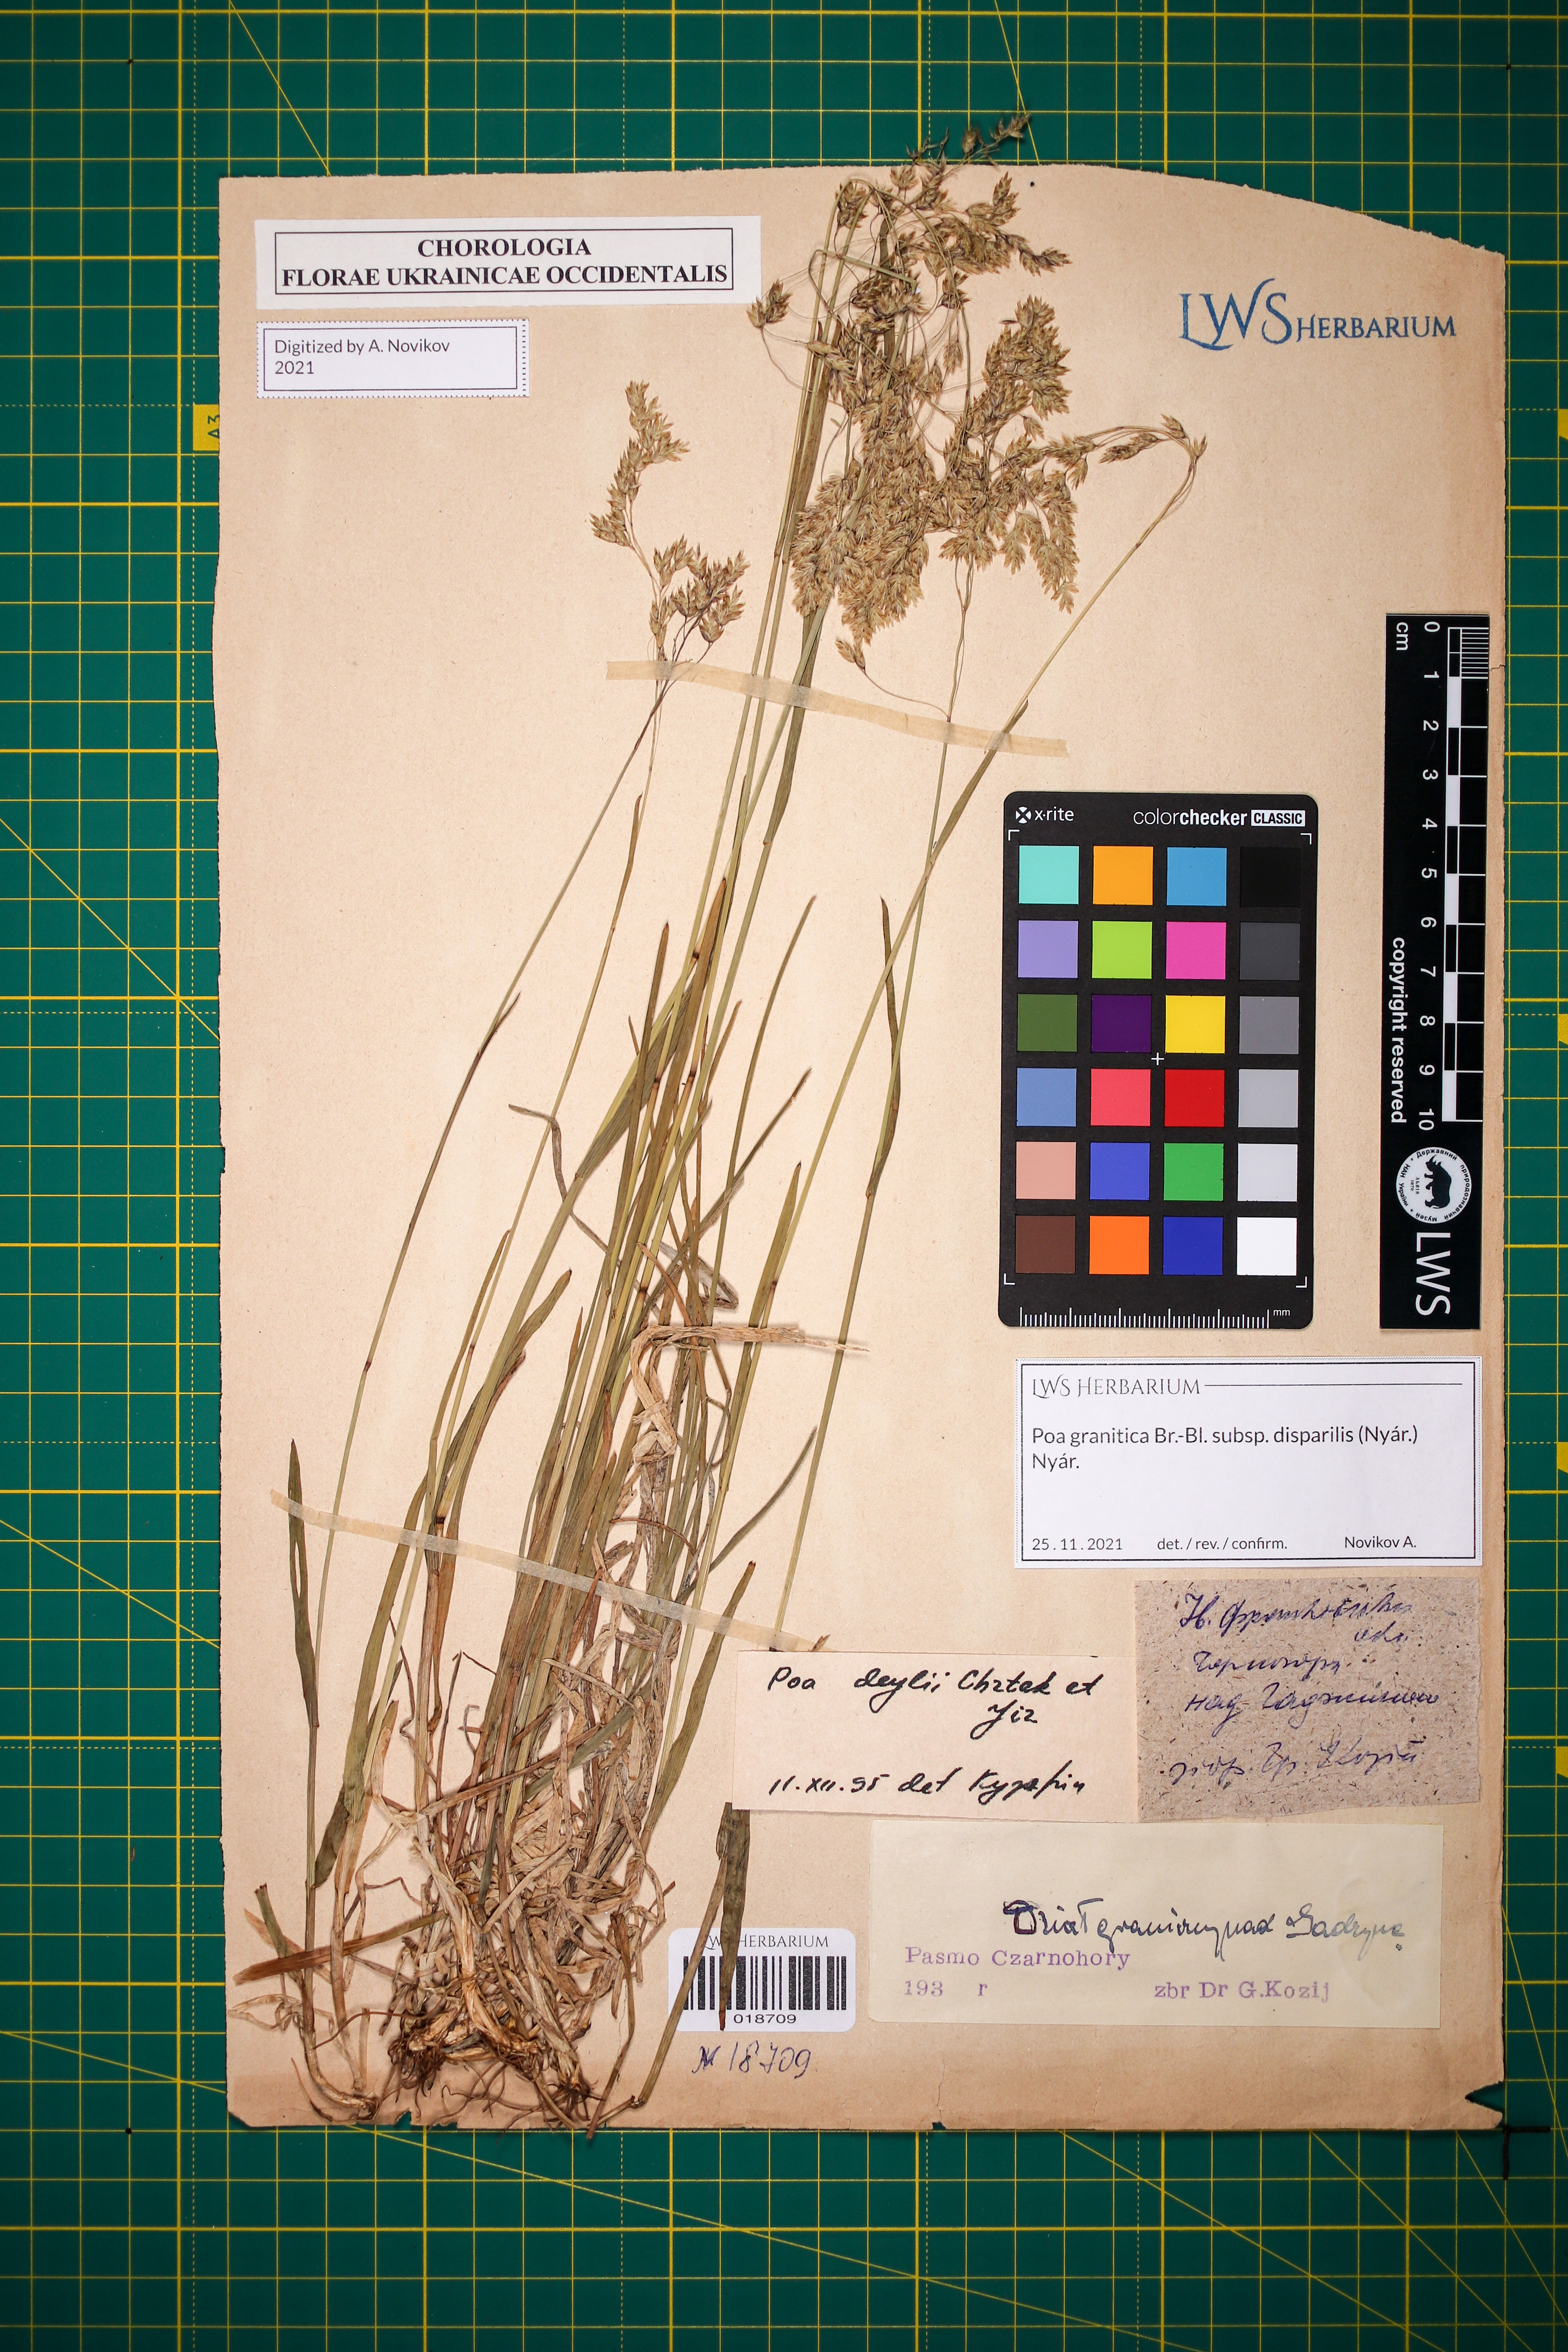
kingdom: Plantae
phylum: Tracheophyta
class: Liliopsida
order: Poales
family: Poaceae
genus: Poa
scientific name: Poa granitica
